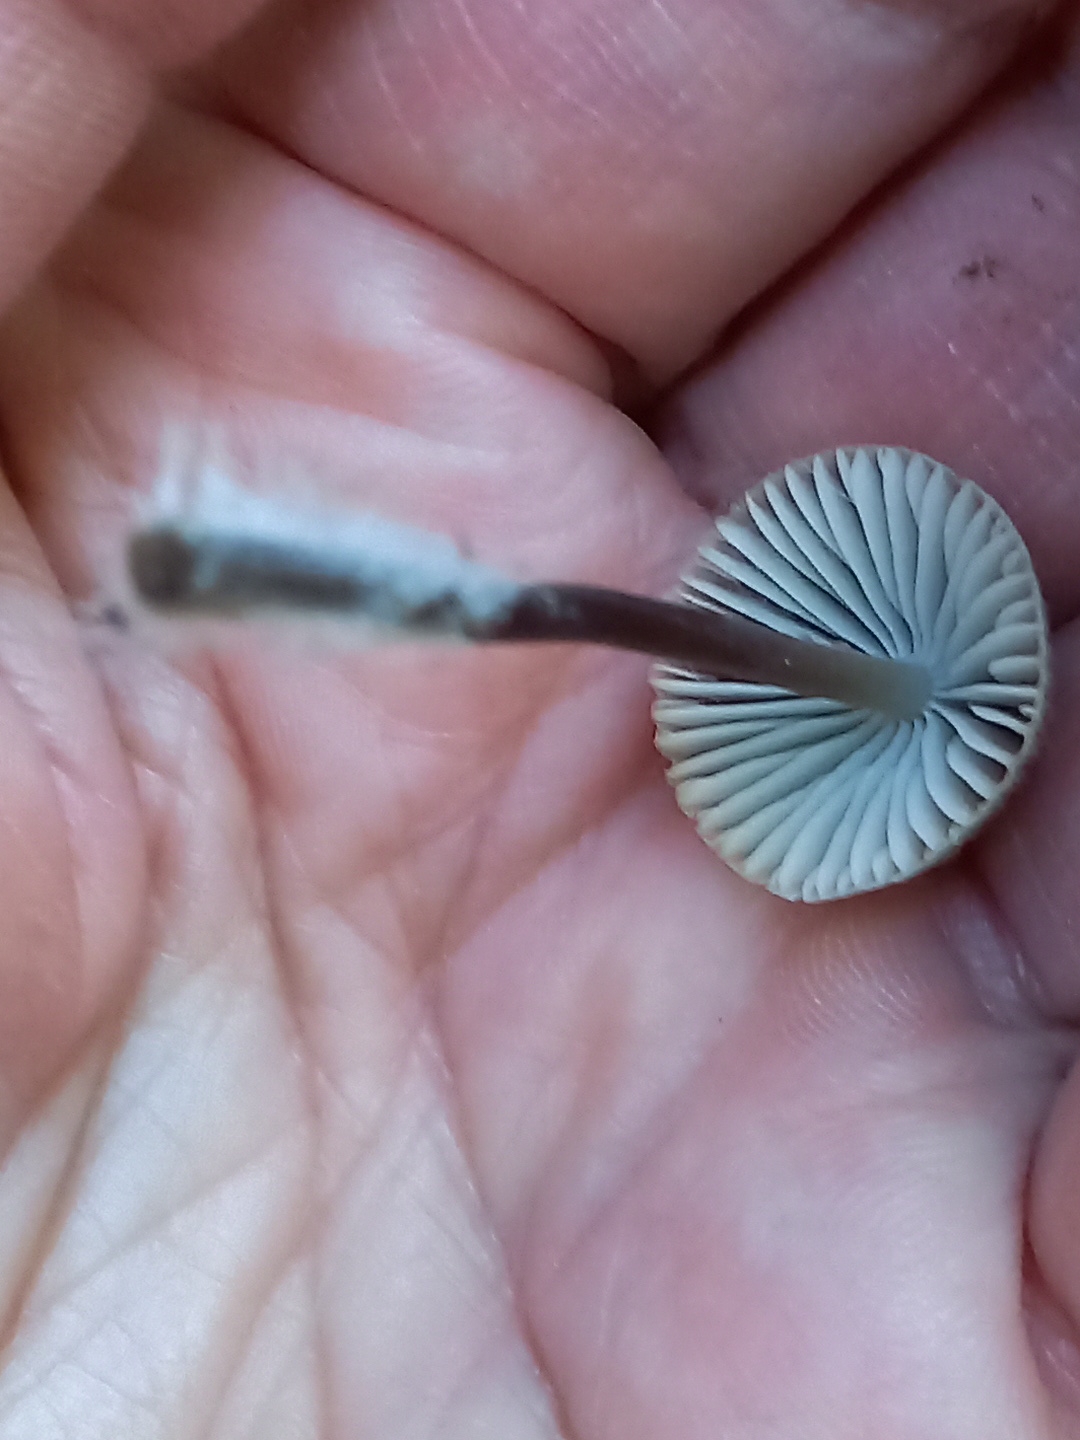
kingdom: Fungi
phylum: Basidiomycota
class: Agaricomycetes
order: Agaricales
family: Mycenaceae
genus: Mycena
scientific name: Mycena
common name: huesvamp
